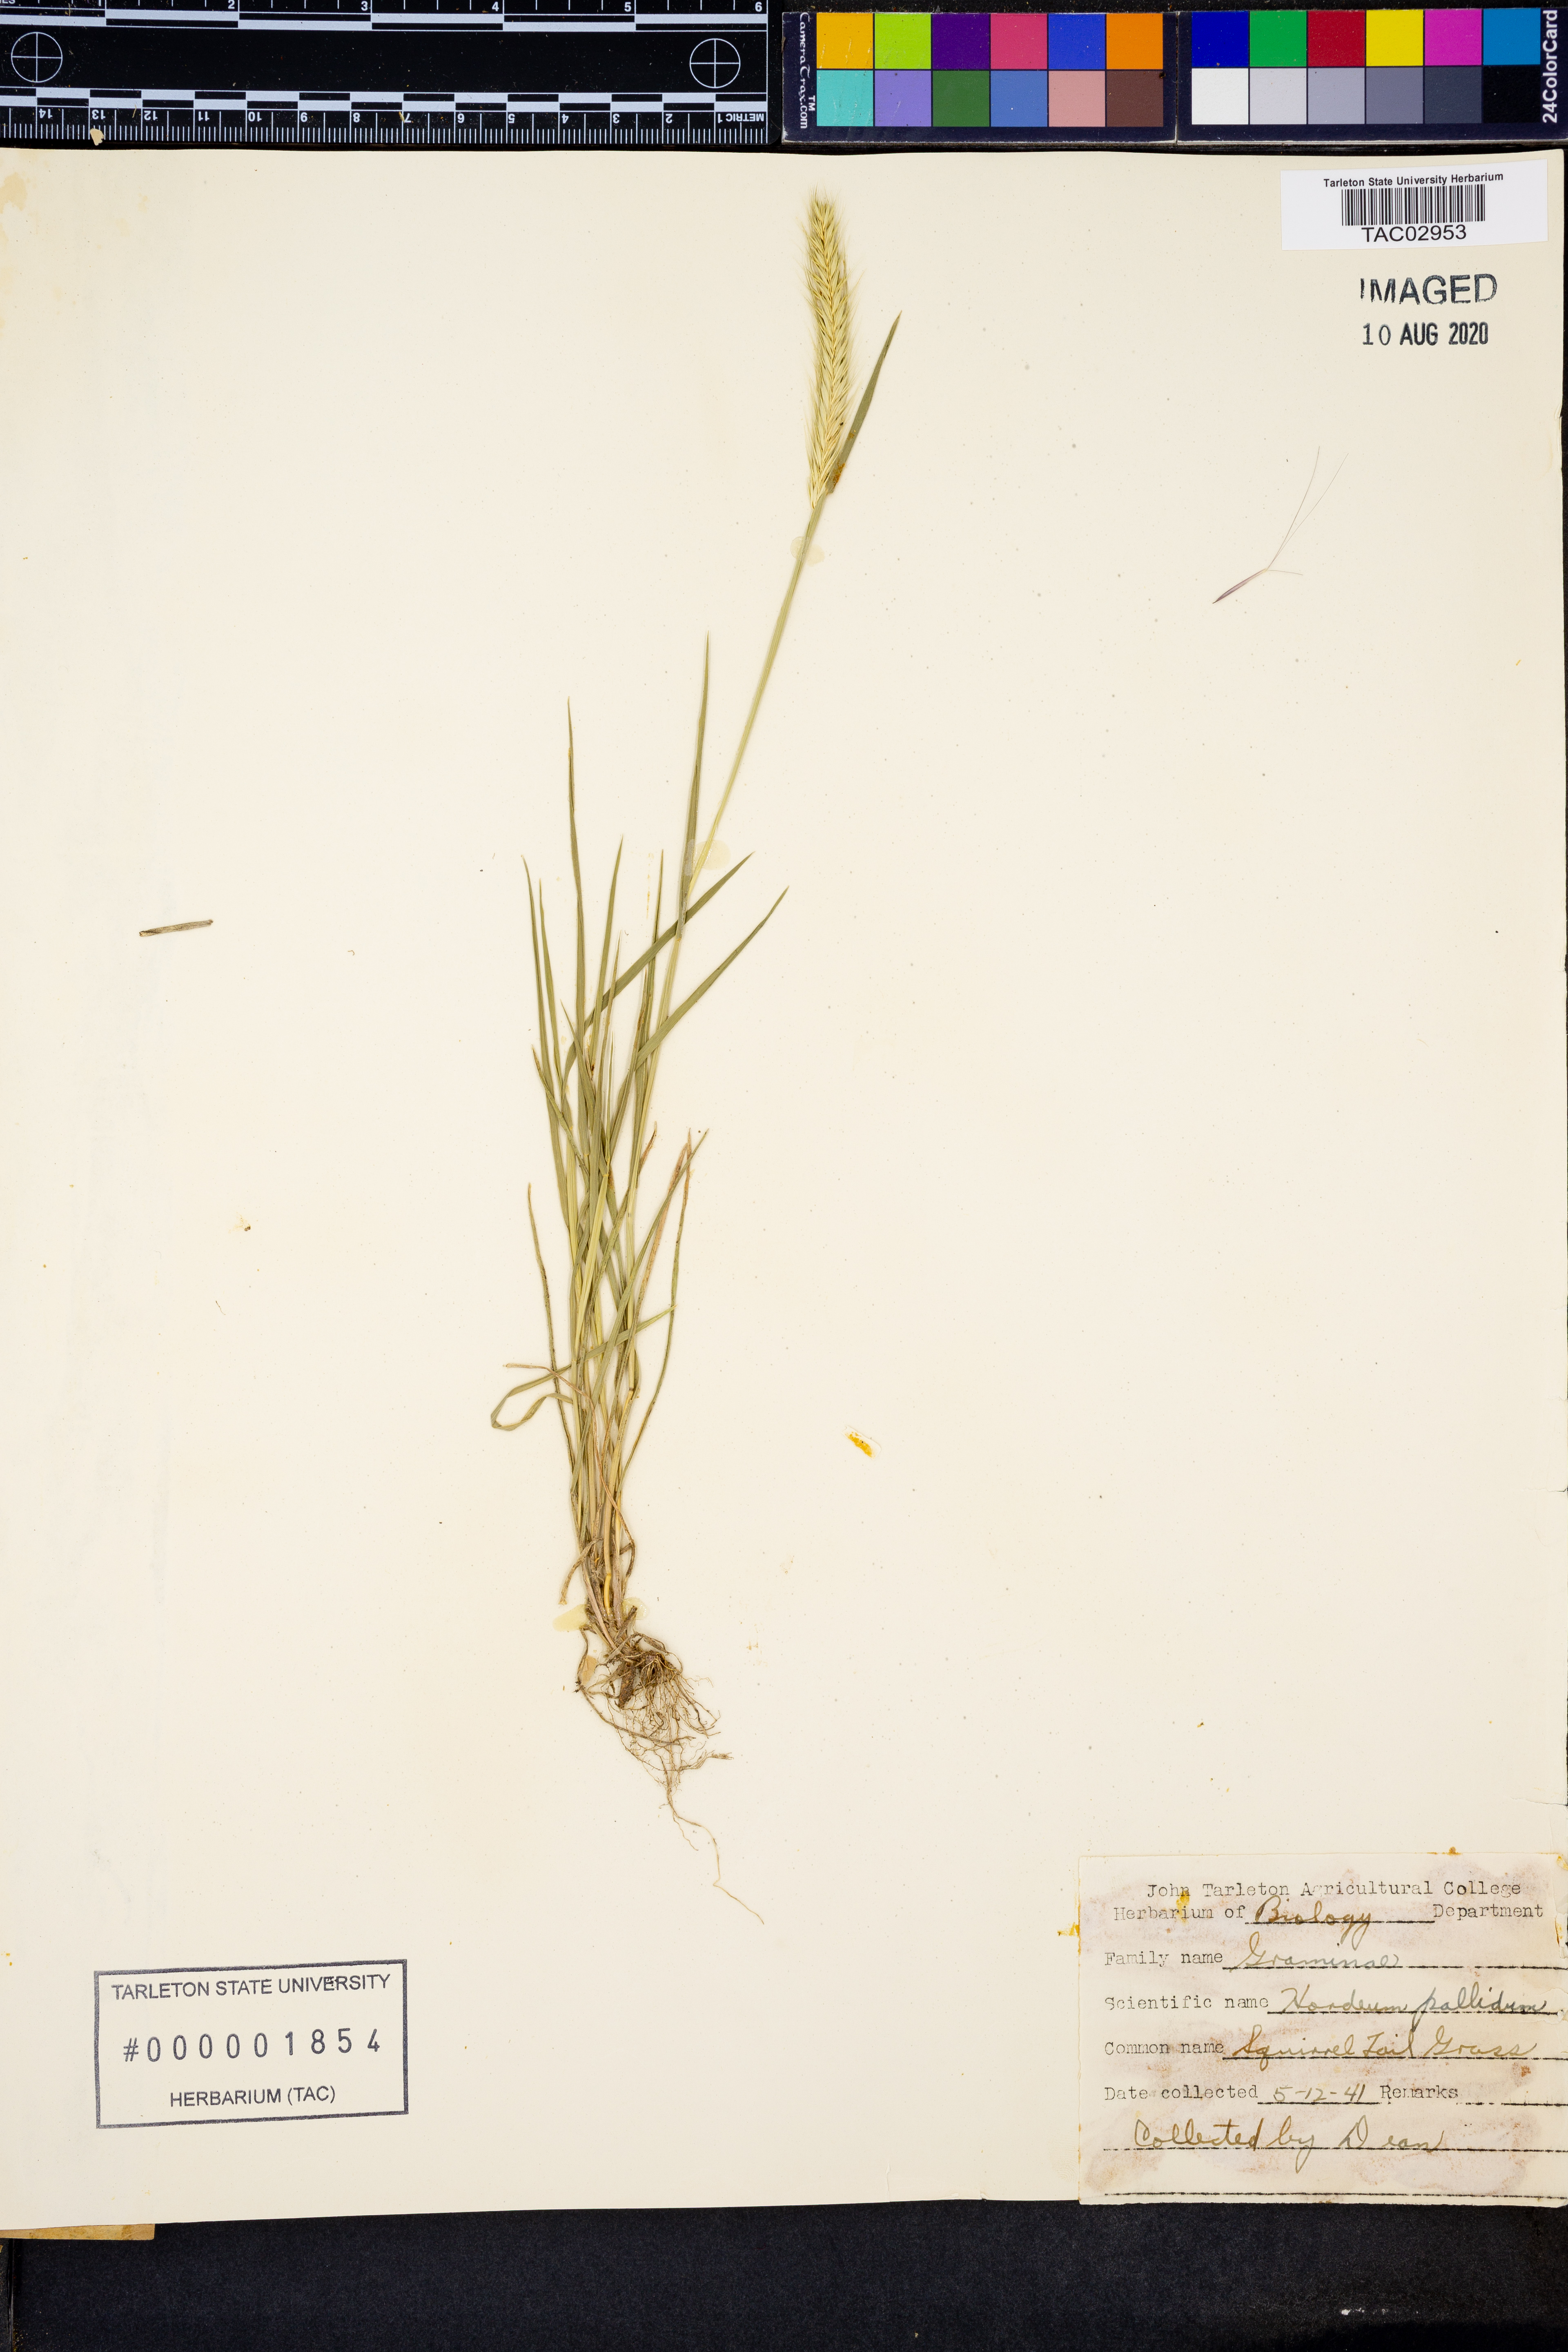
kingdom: Plantae
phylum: Tracheophyta
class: Liliopsida
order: Poales
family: Poaceae
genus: Hordeum
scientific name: Hordeum
